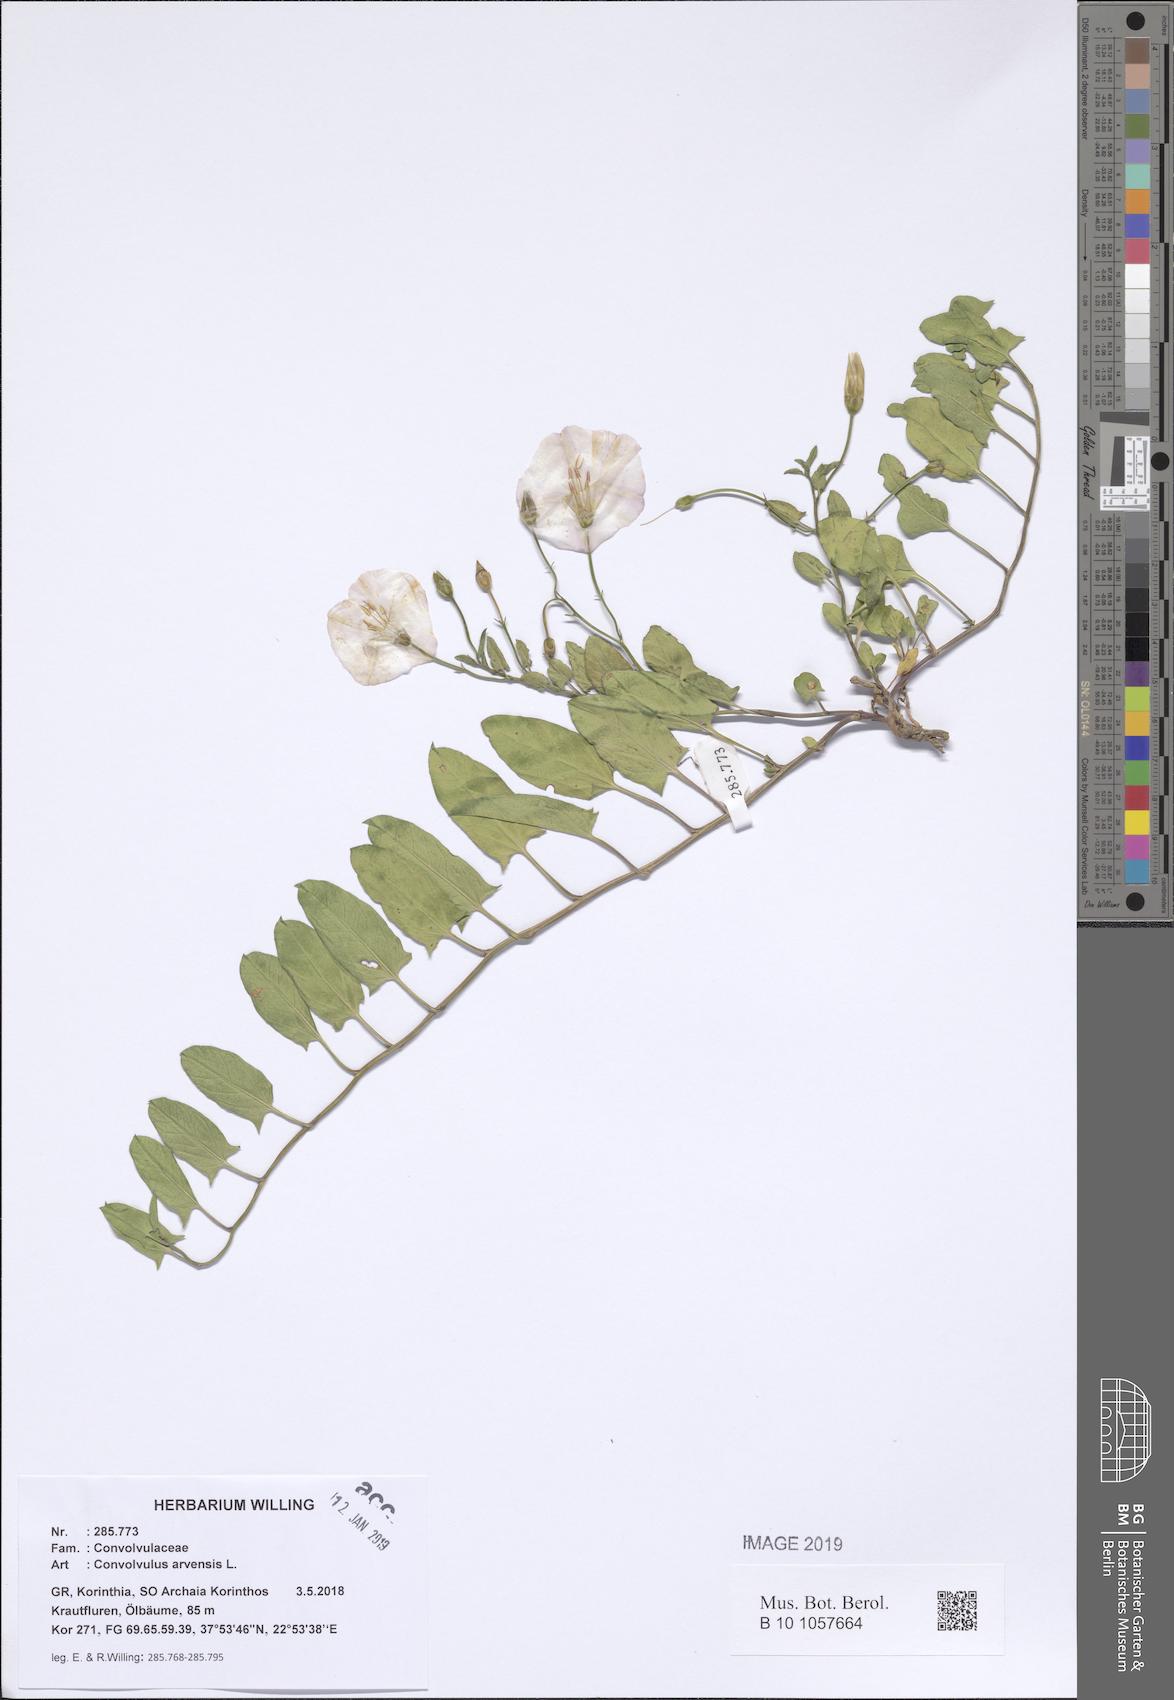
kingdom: Plantae
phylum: Tracheophyta
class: Magnoliopsida
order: Solanales
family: Convolvulaceae
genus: Convolvulus
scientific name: Convolvulus arvensis
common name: Field bindweed
